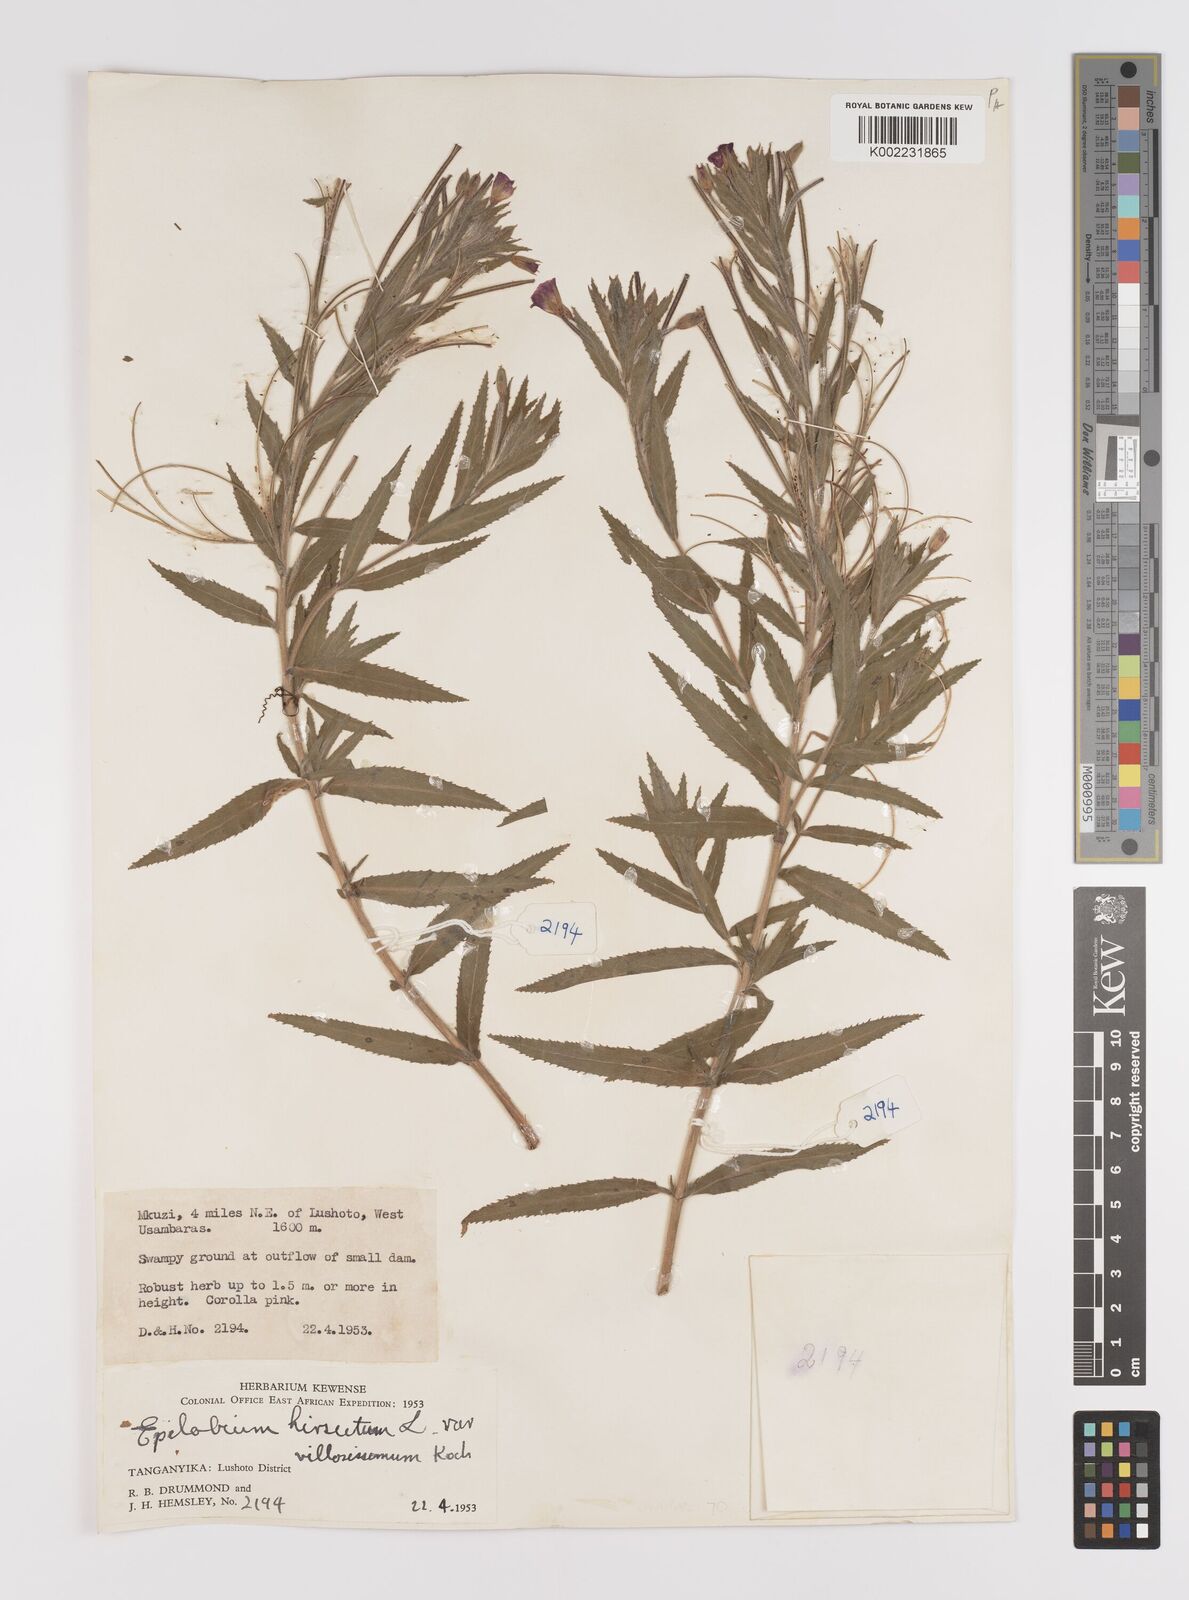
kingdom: Plantae
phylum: Tracheophyta
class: Magnoliopsida
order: Myrtales
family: Onagraceae
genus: Epilobium
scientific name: Epilobium hirsutum
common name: Great willowherb
